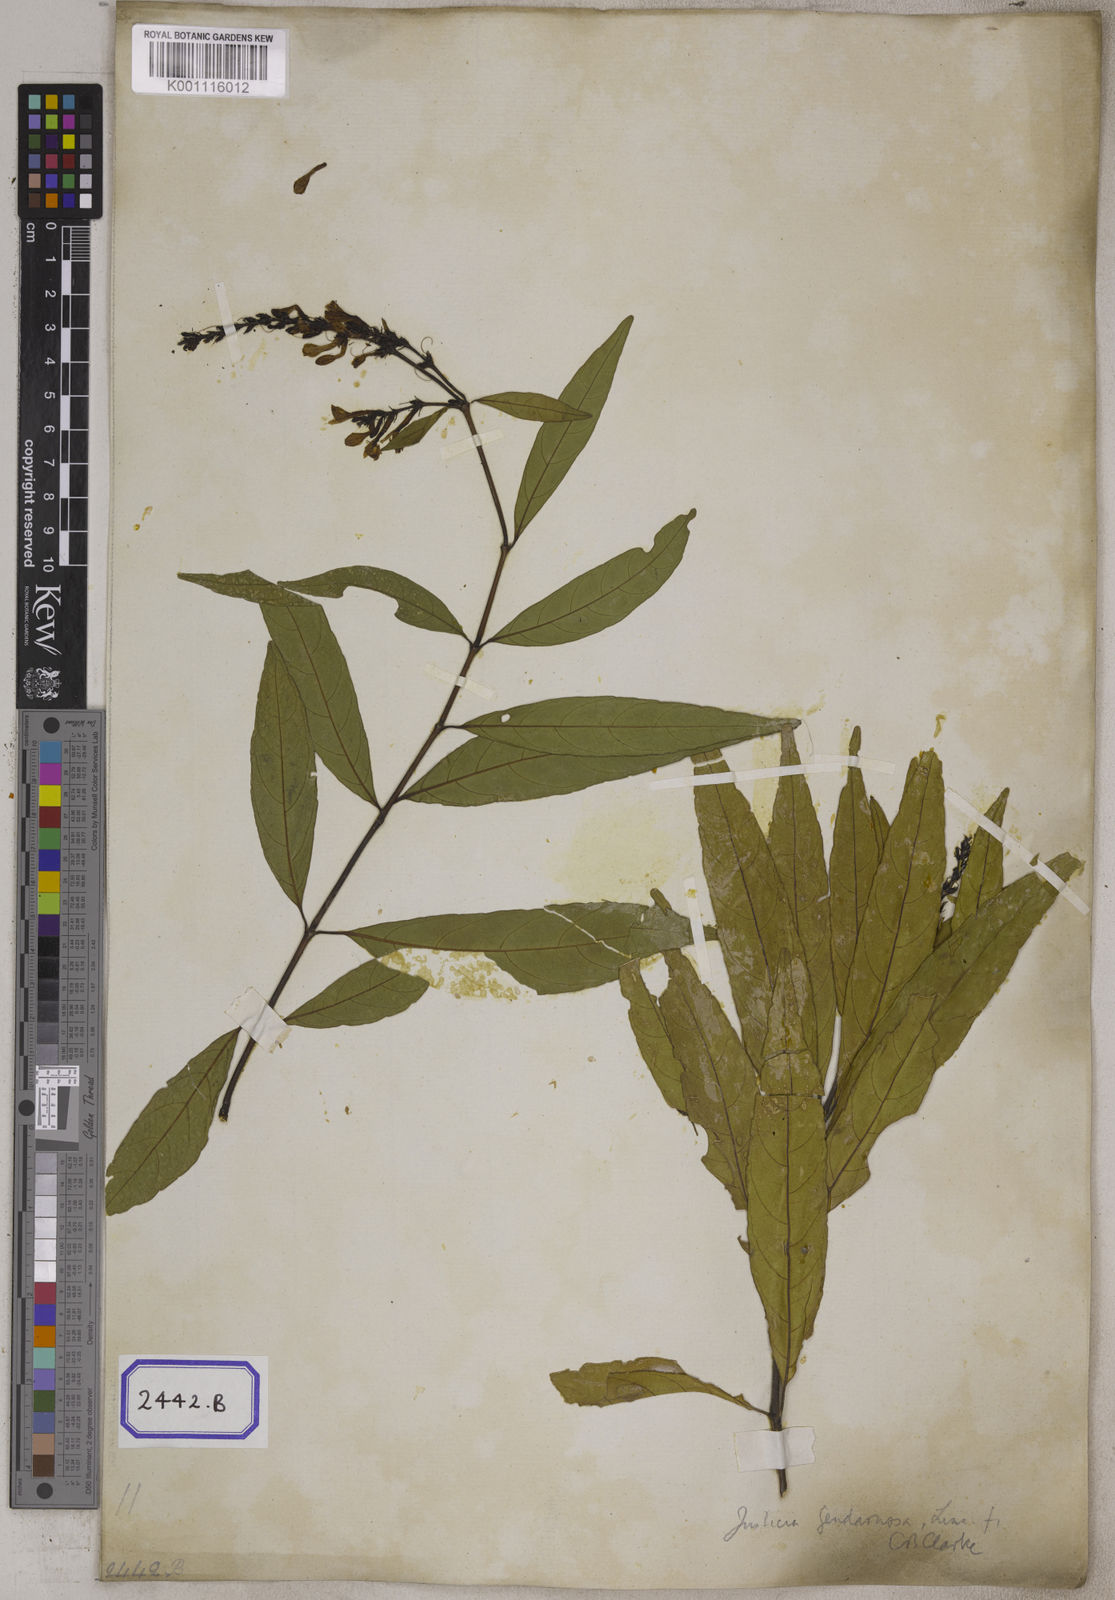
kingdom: Plantae
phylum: Tracheophyta
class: Magnoliopsida
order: Lamiales
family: Acanthaceae
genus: Justicia
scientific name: Justicia
